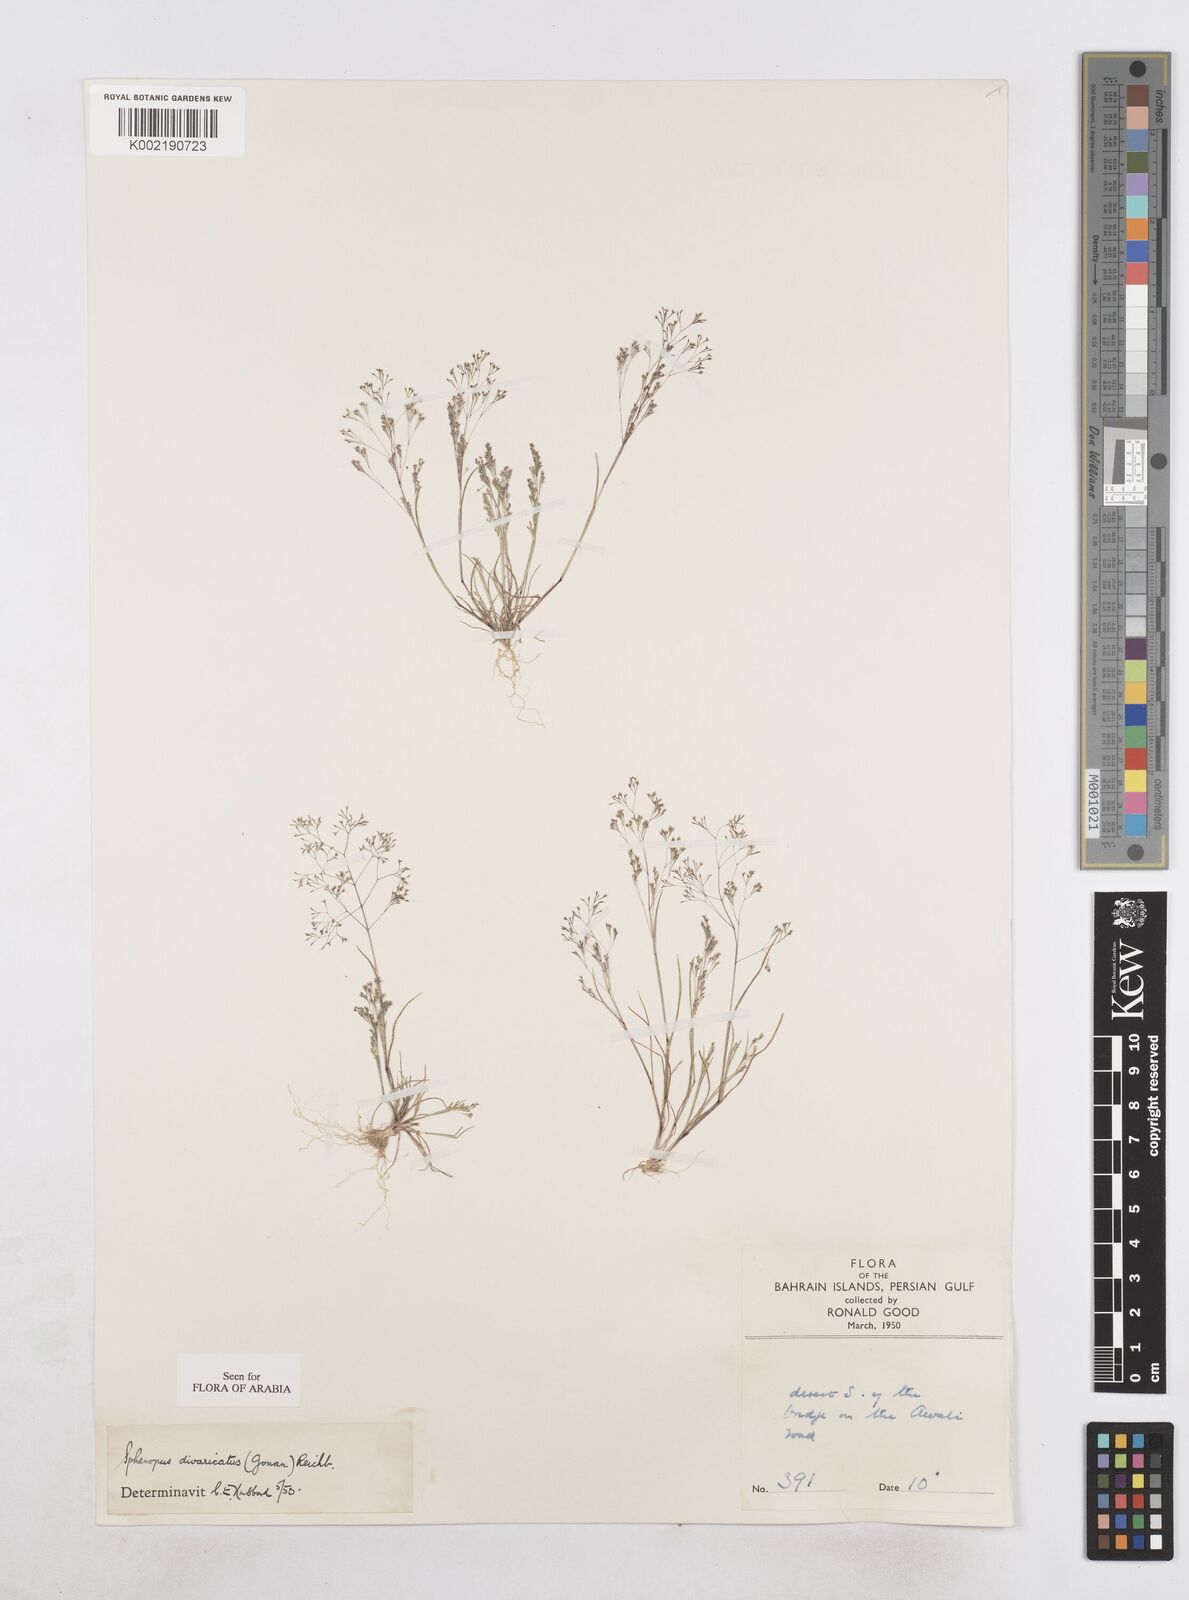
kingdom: Plantae
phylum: Tracheophyta
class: Liliopsida
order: Poales
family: Poaceae
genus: Sphenopus
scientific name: Sphenopus divaricatus
